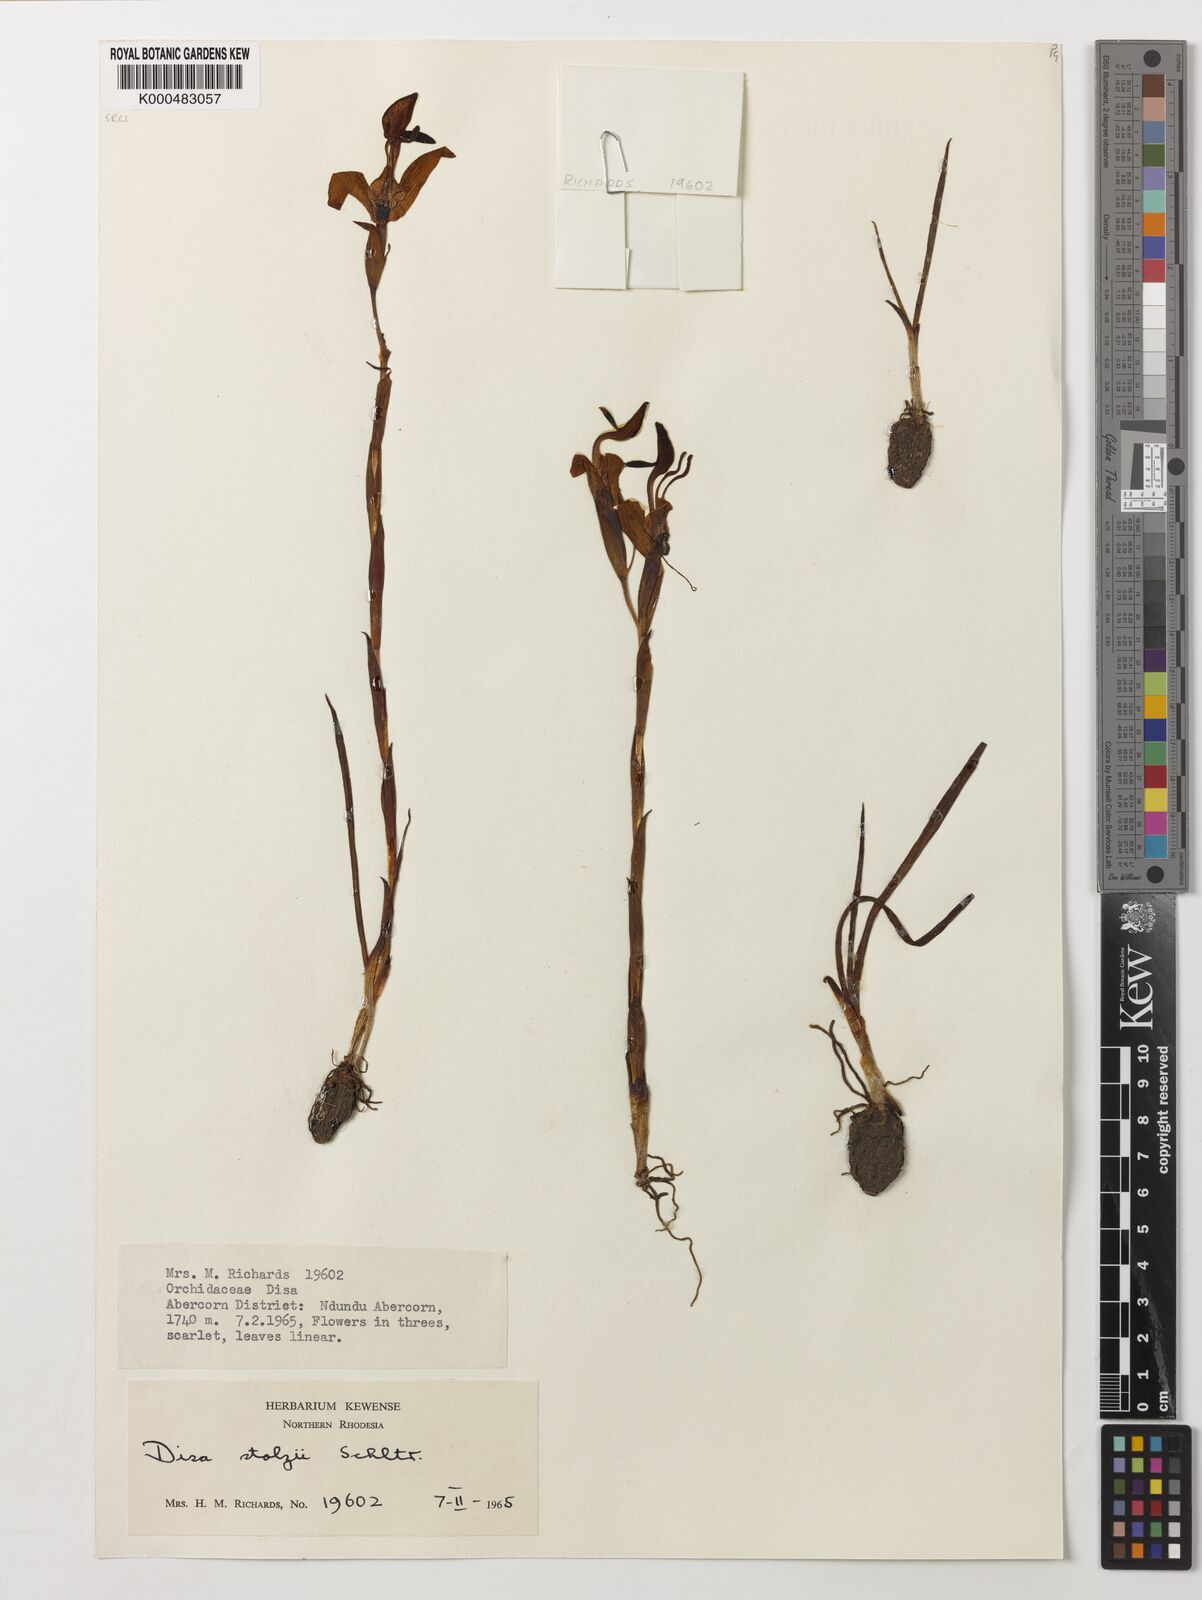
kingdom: Plantae
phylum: Tracheophyta
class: Liliopsida
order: Asparagales
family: Orchidaceae
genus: Disa
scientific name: Disa erubescens
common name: The rose disa
